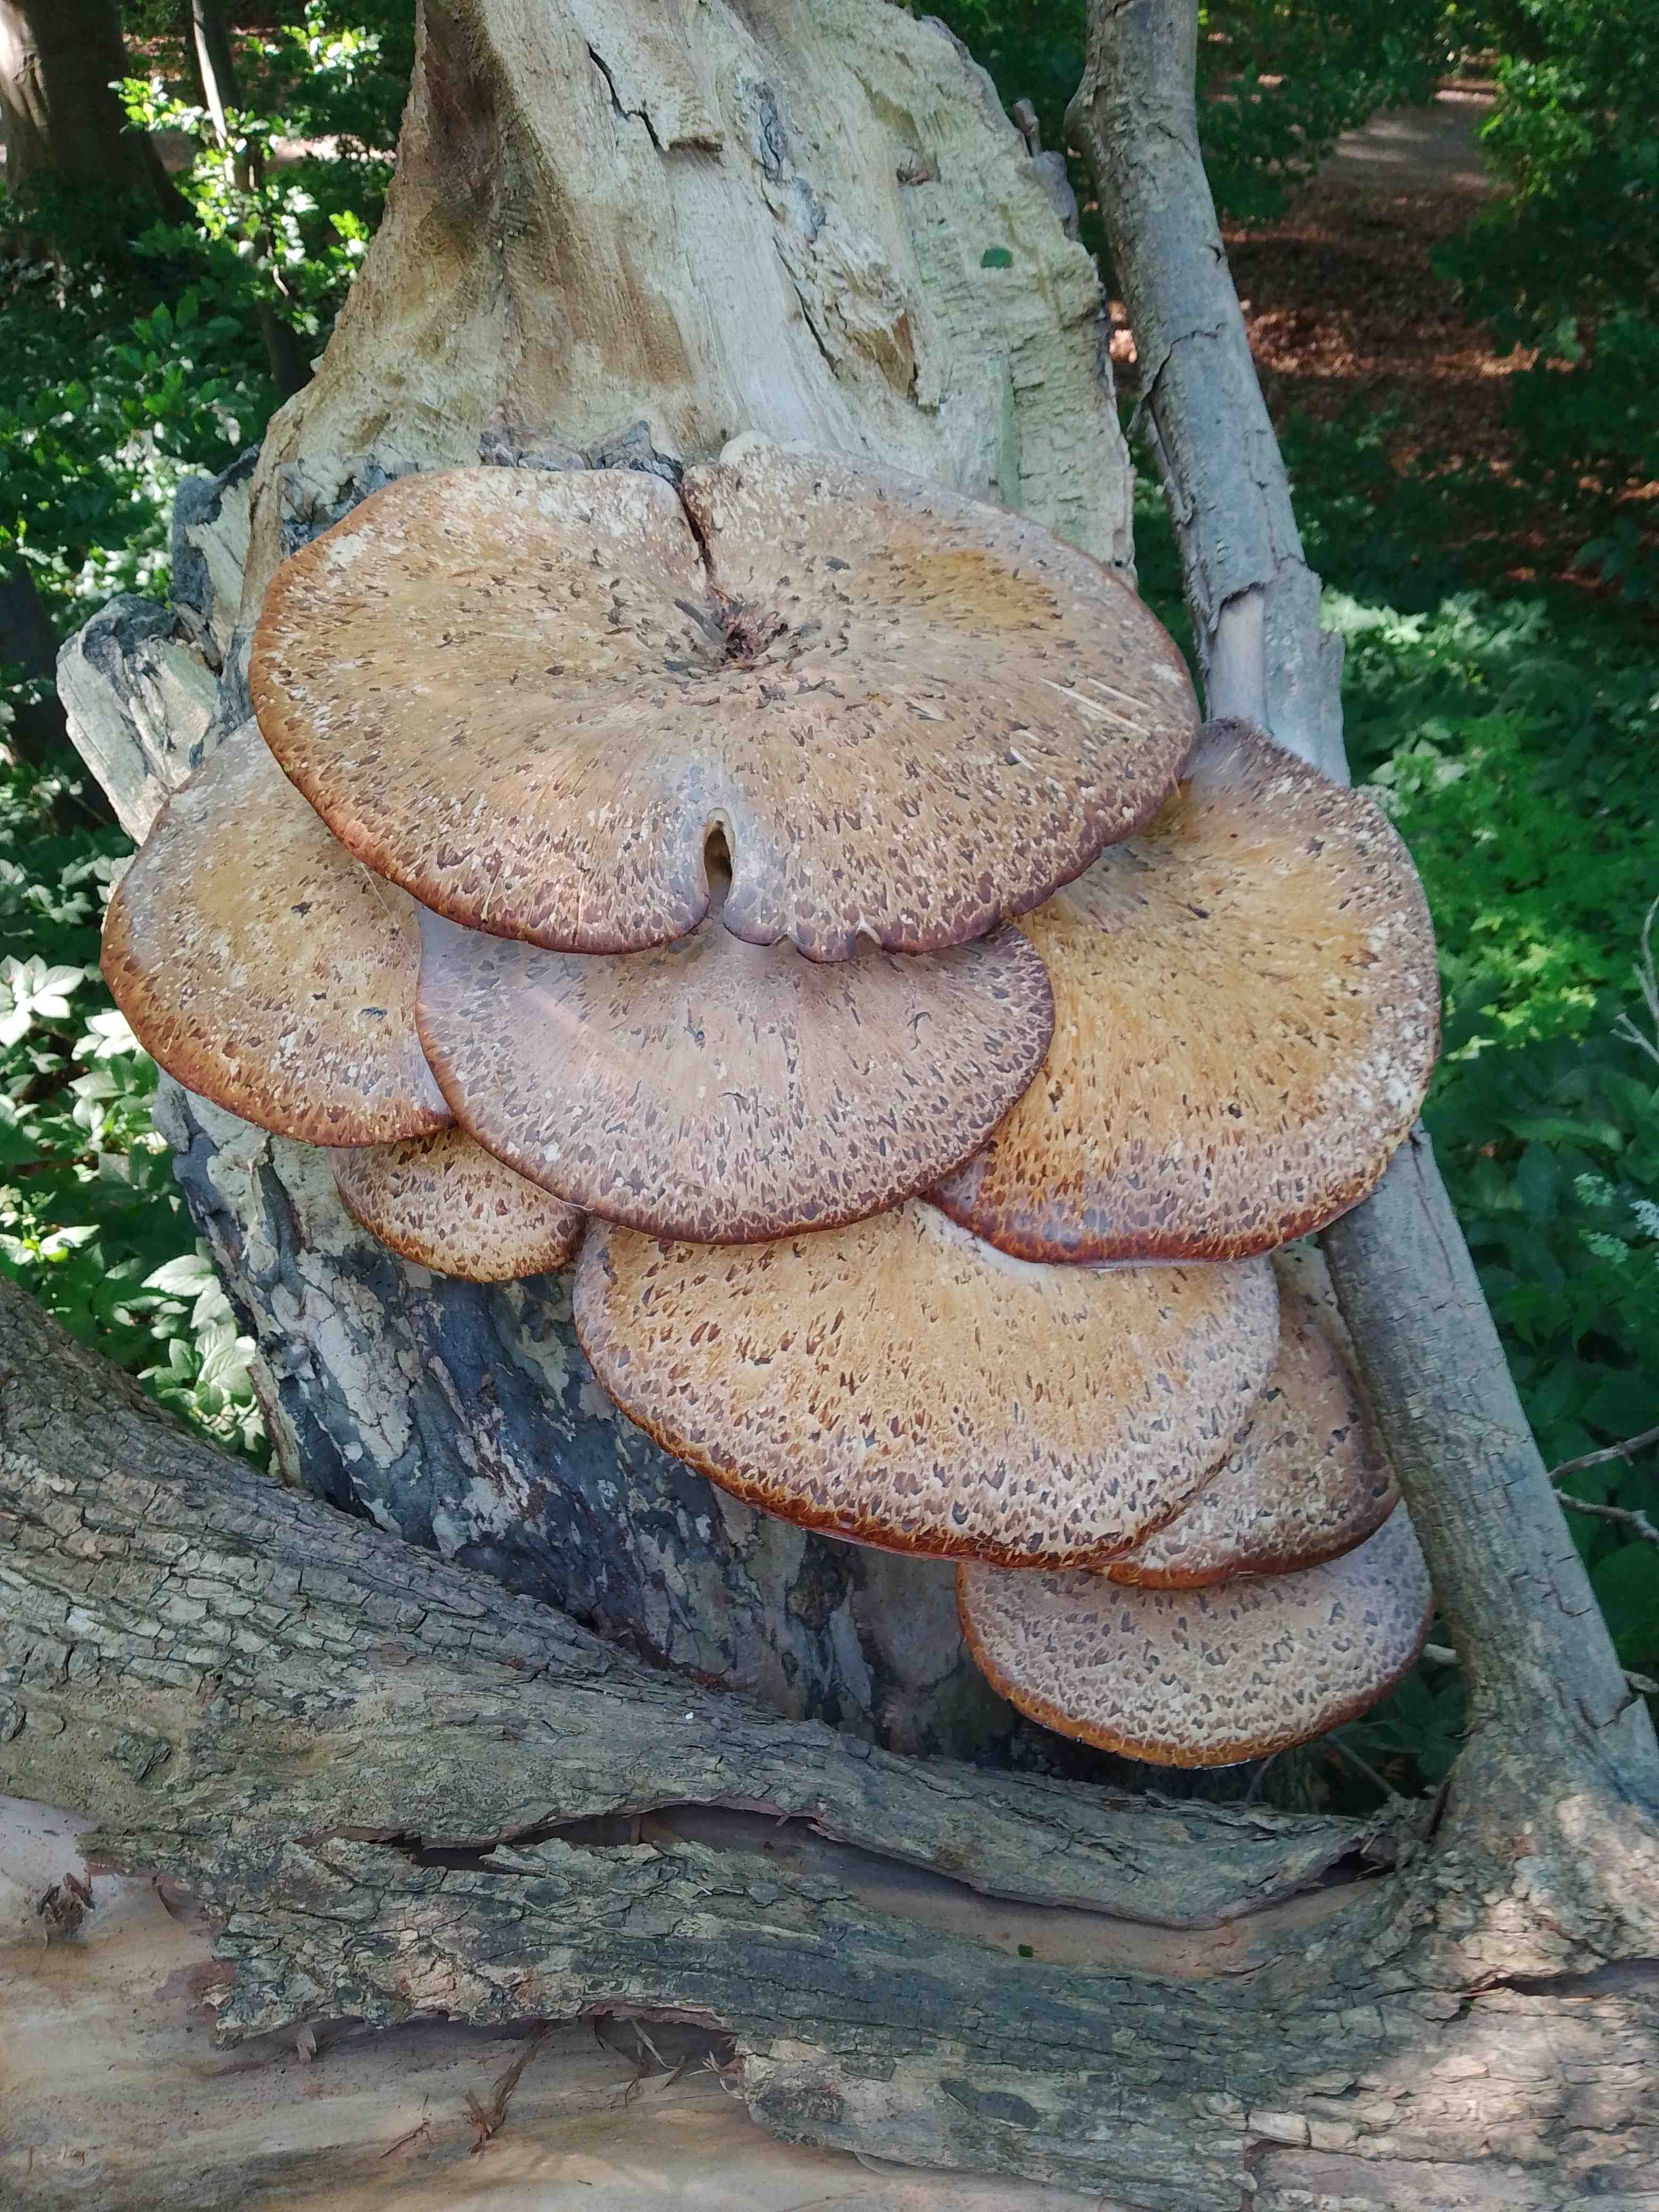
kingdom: Fungi
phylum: Basidiomycota
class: Agaricomycetes
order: Polyporales
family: Polyporaceae
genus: Cerioporus
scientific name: Cerioporus squamosus
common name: skællet stilkporesvamp
